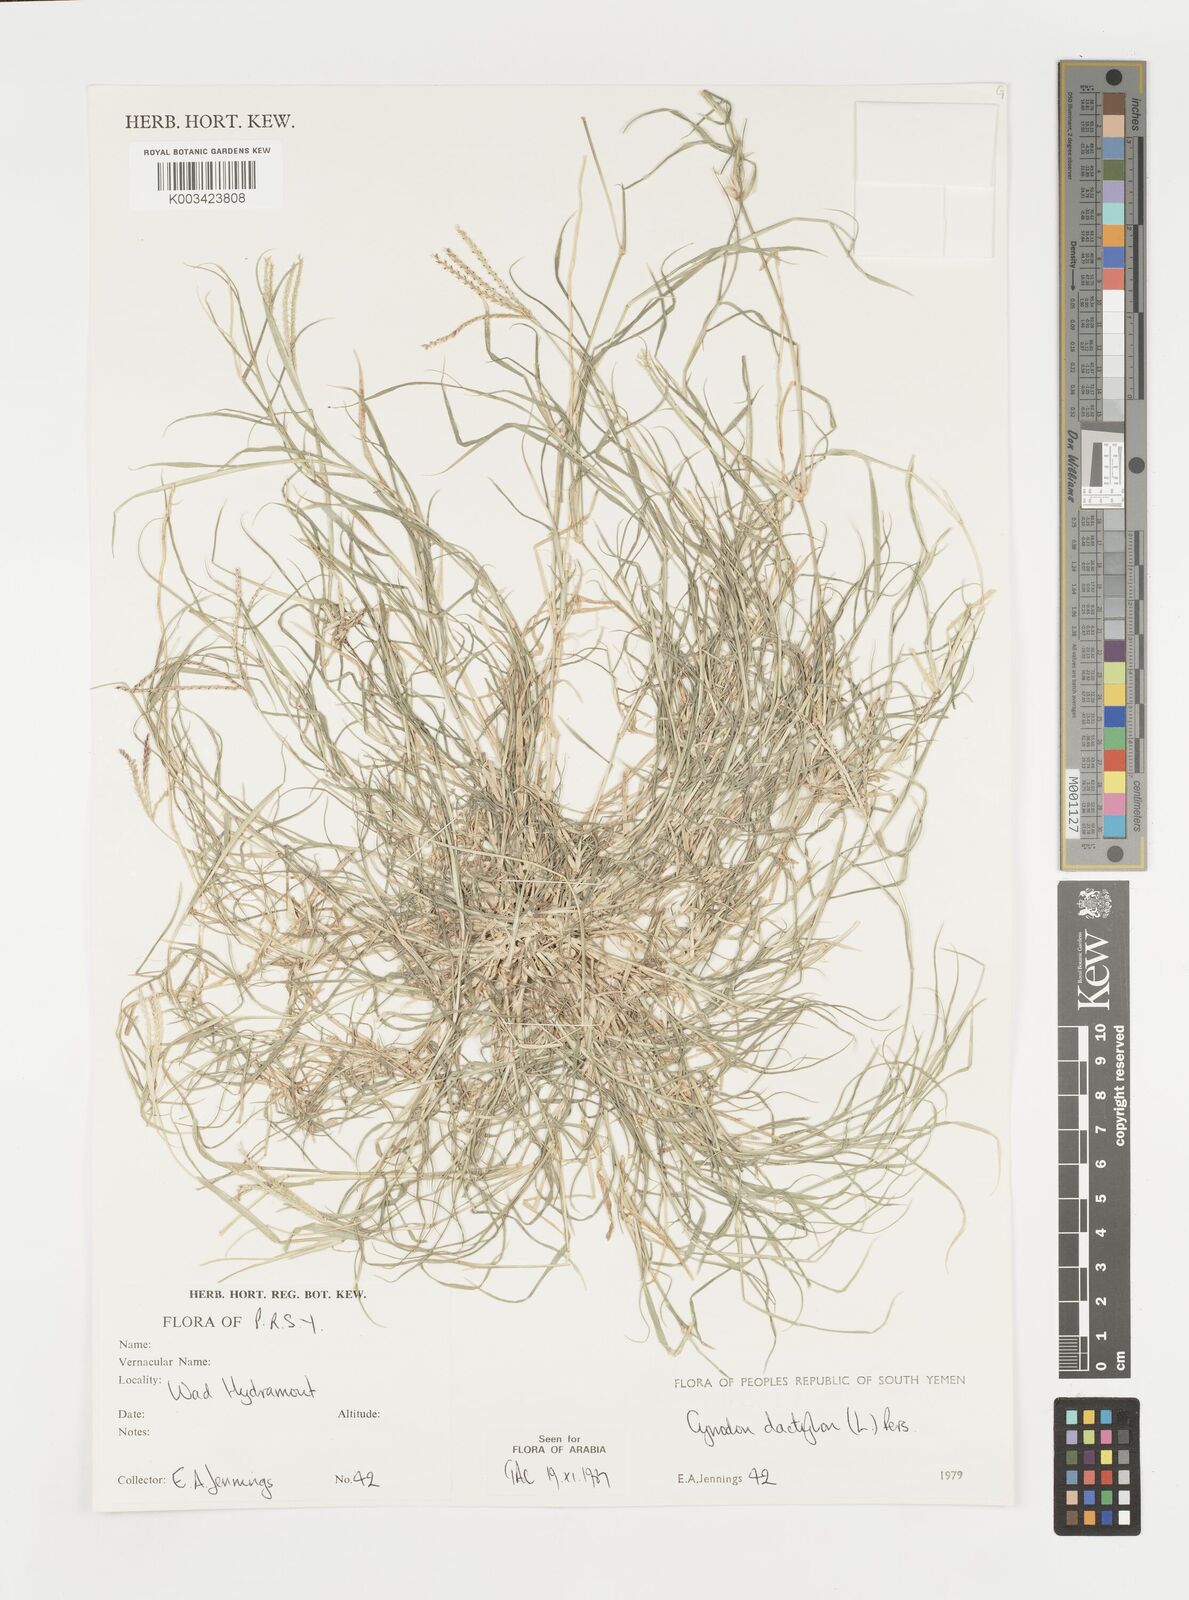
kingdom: Plantae
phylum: Tracheophyta
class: Liliopsida
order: Poales
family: Poaceae
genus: Cynodon
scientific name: Cynodon dactylon
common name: Bermuda grass
